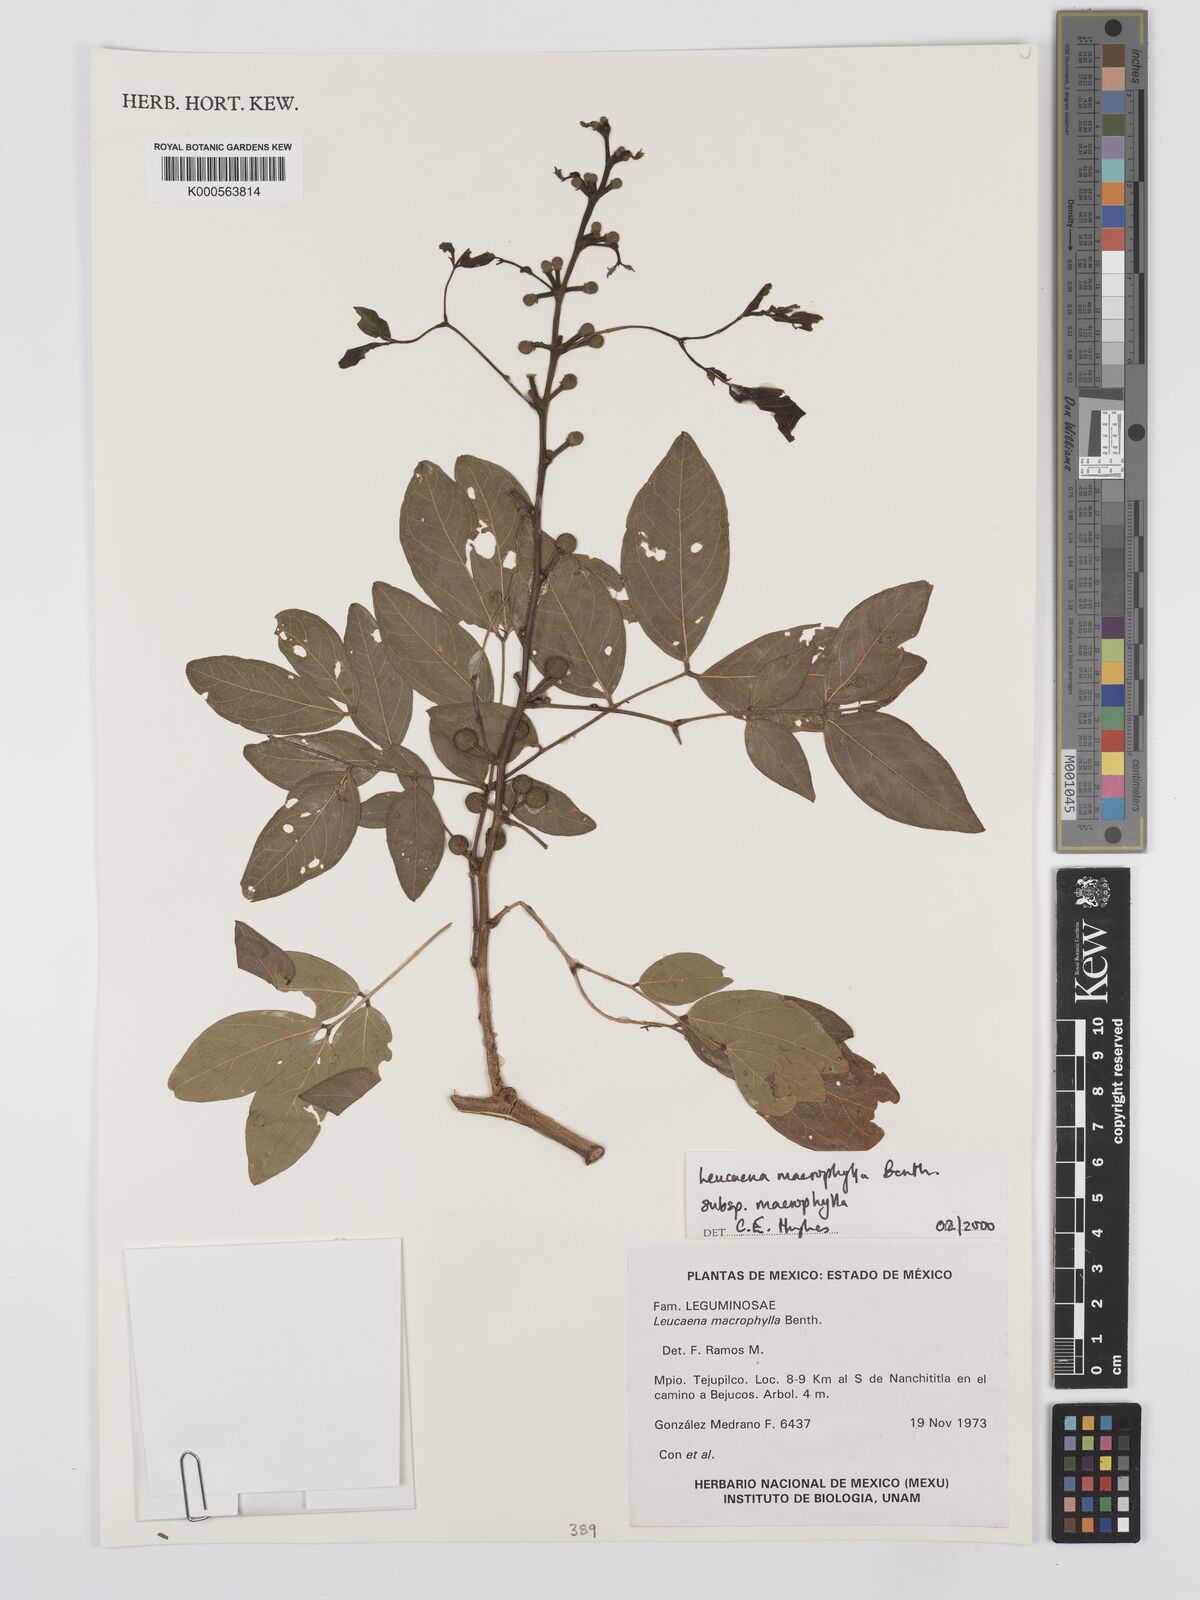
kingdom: Plantae
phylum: Tracheophyta
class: Magnoliopsida
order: Fabales
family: Fabaceae
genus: Leucaena
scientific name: Leucaena macrophylla
